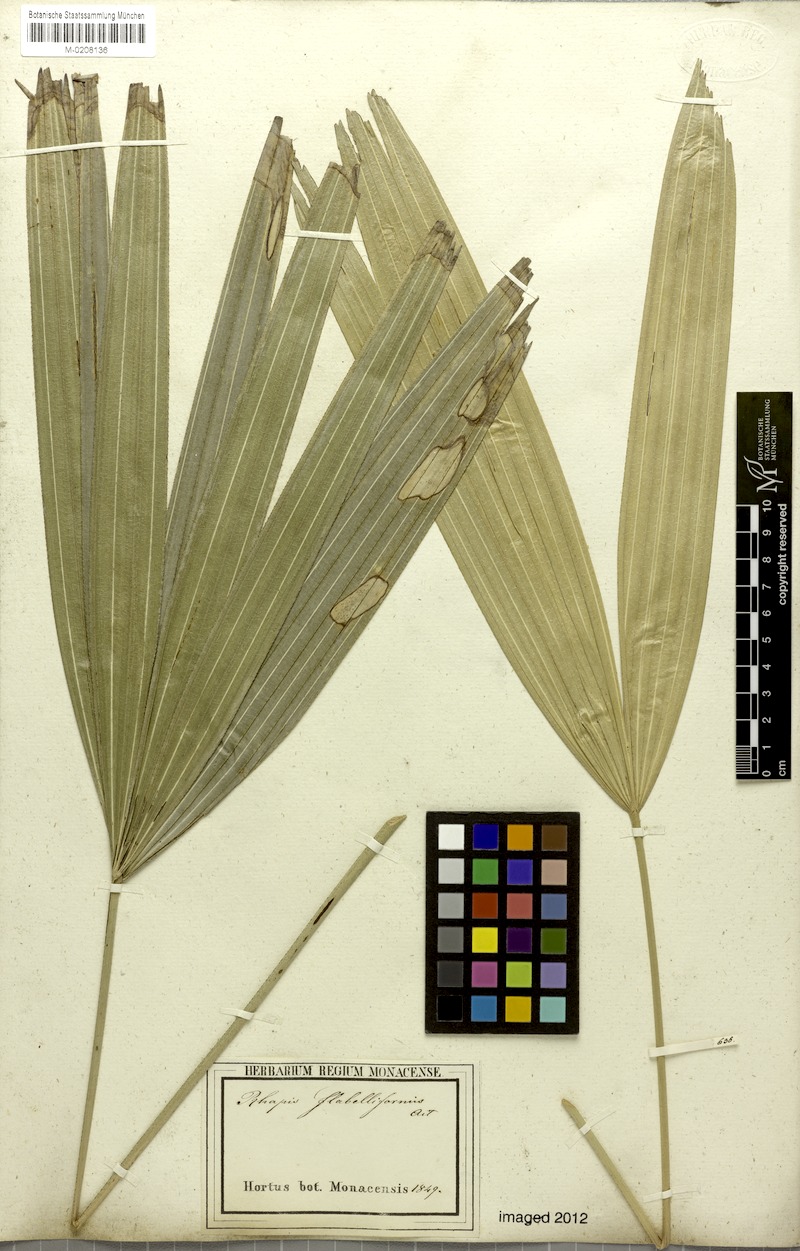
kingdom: Plantae
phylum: Tracheophyta
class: Liliopsida
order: Arecales
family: Arecaceae
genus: Rhapis
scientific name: Rhapis excelsa
